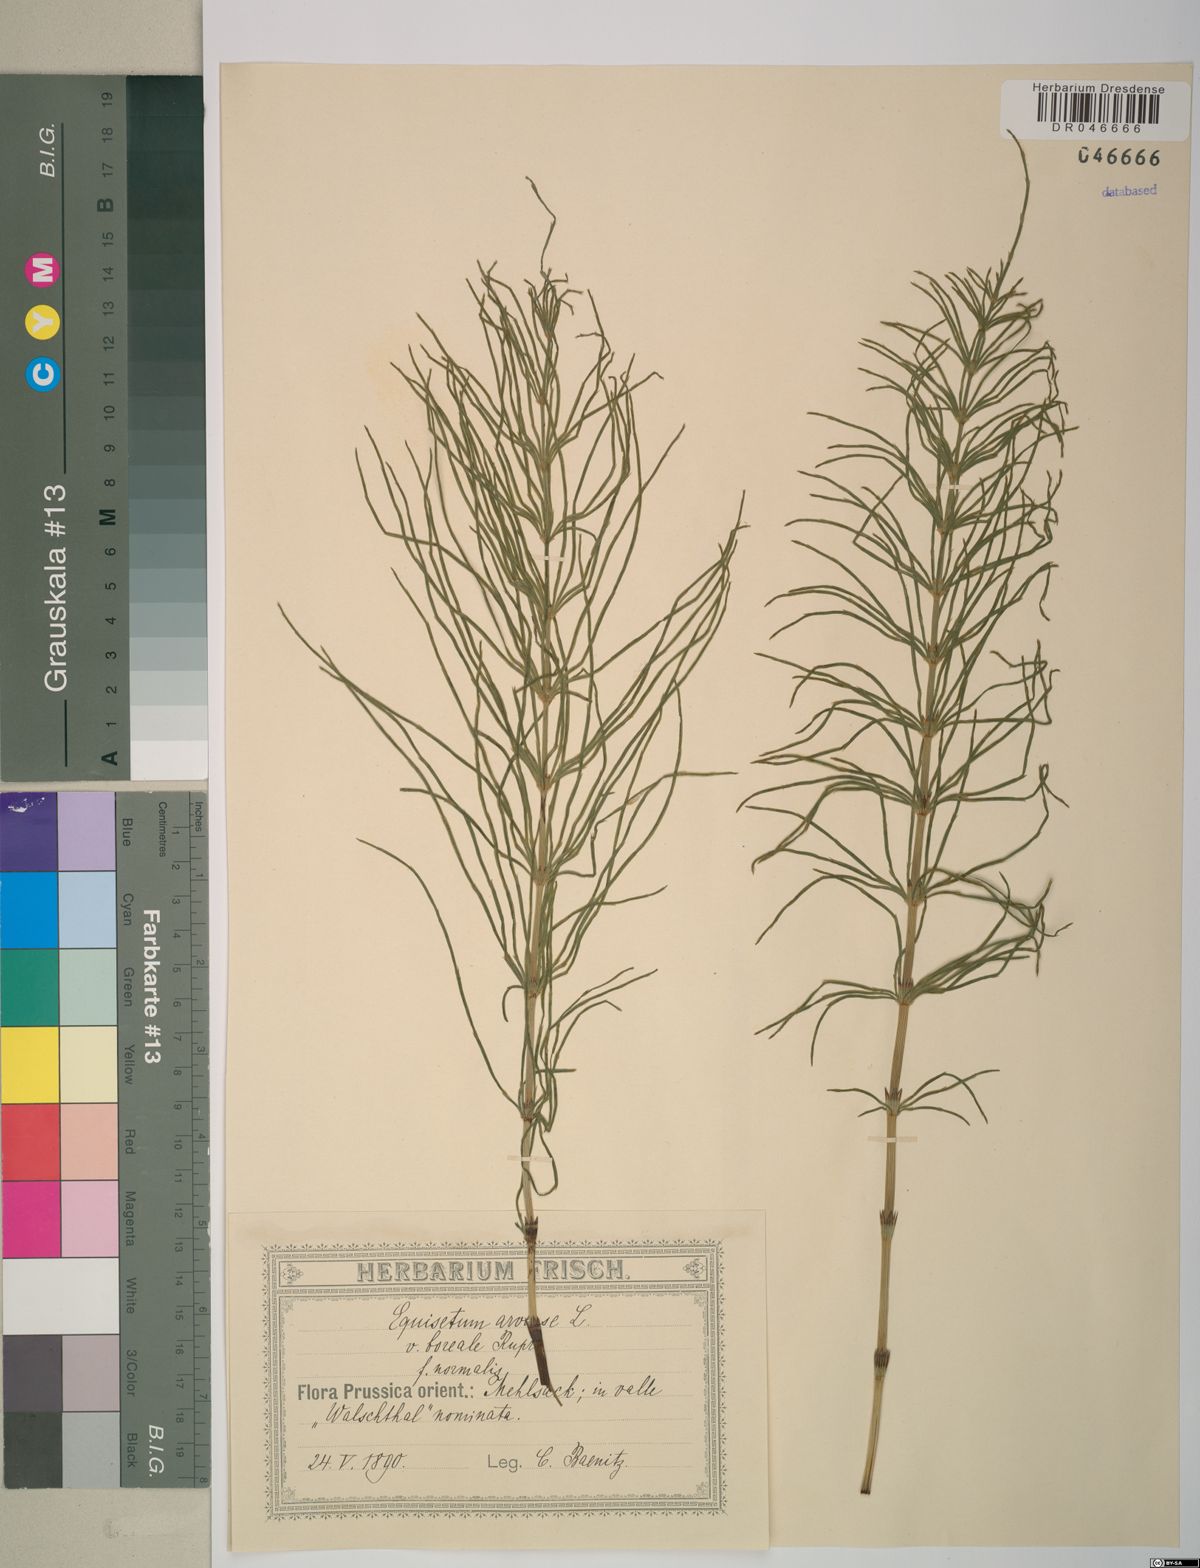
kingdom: Plantae
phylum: Tracheophyta
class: Polypodiopsida
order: Equisetales
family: Equisetaceae
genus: Equisetum
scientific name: Equisetum arvense
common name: Field horsetail
